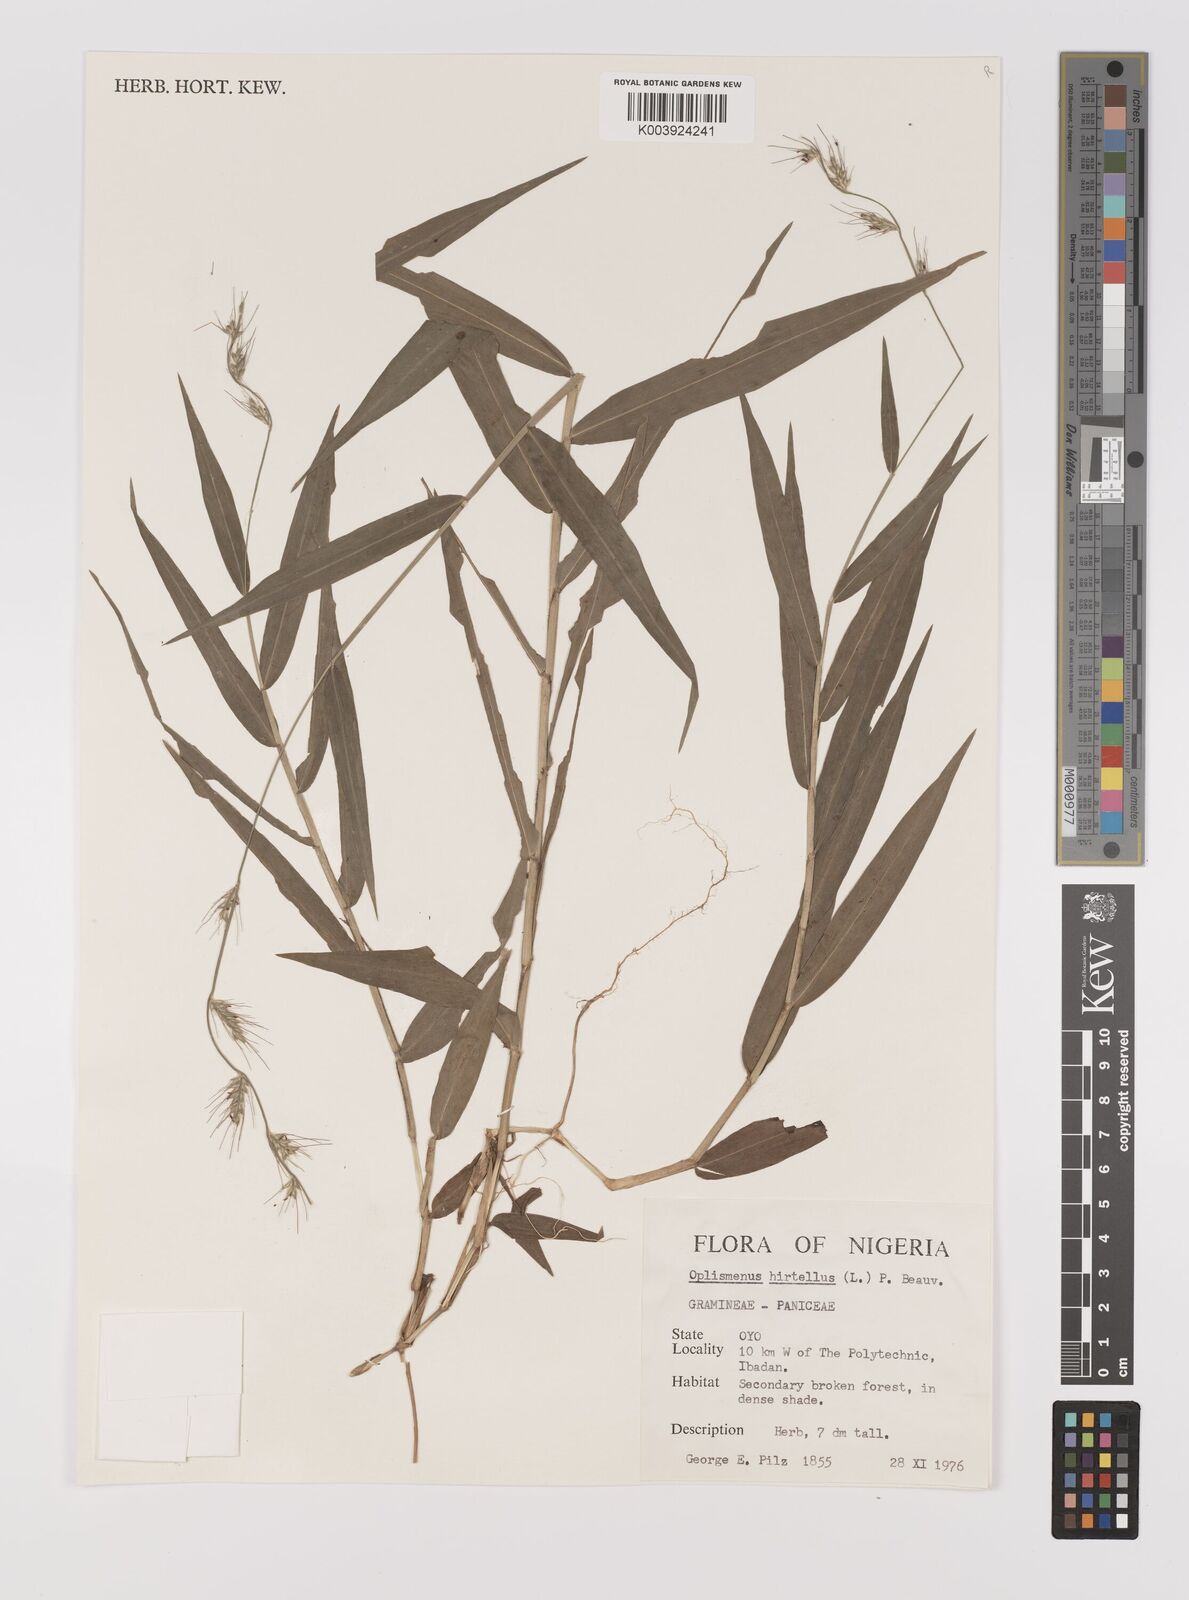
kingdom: Plantae
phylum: Tracheophyta
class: Liliopsida
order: Poales
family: Poaceae
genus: Oplismenus
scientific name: Oplismenus hirtellus
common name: Basketgrass
